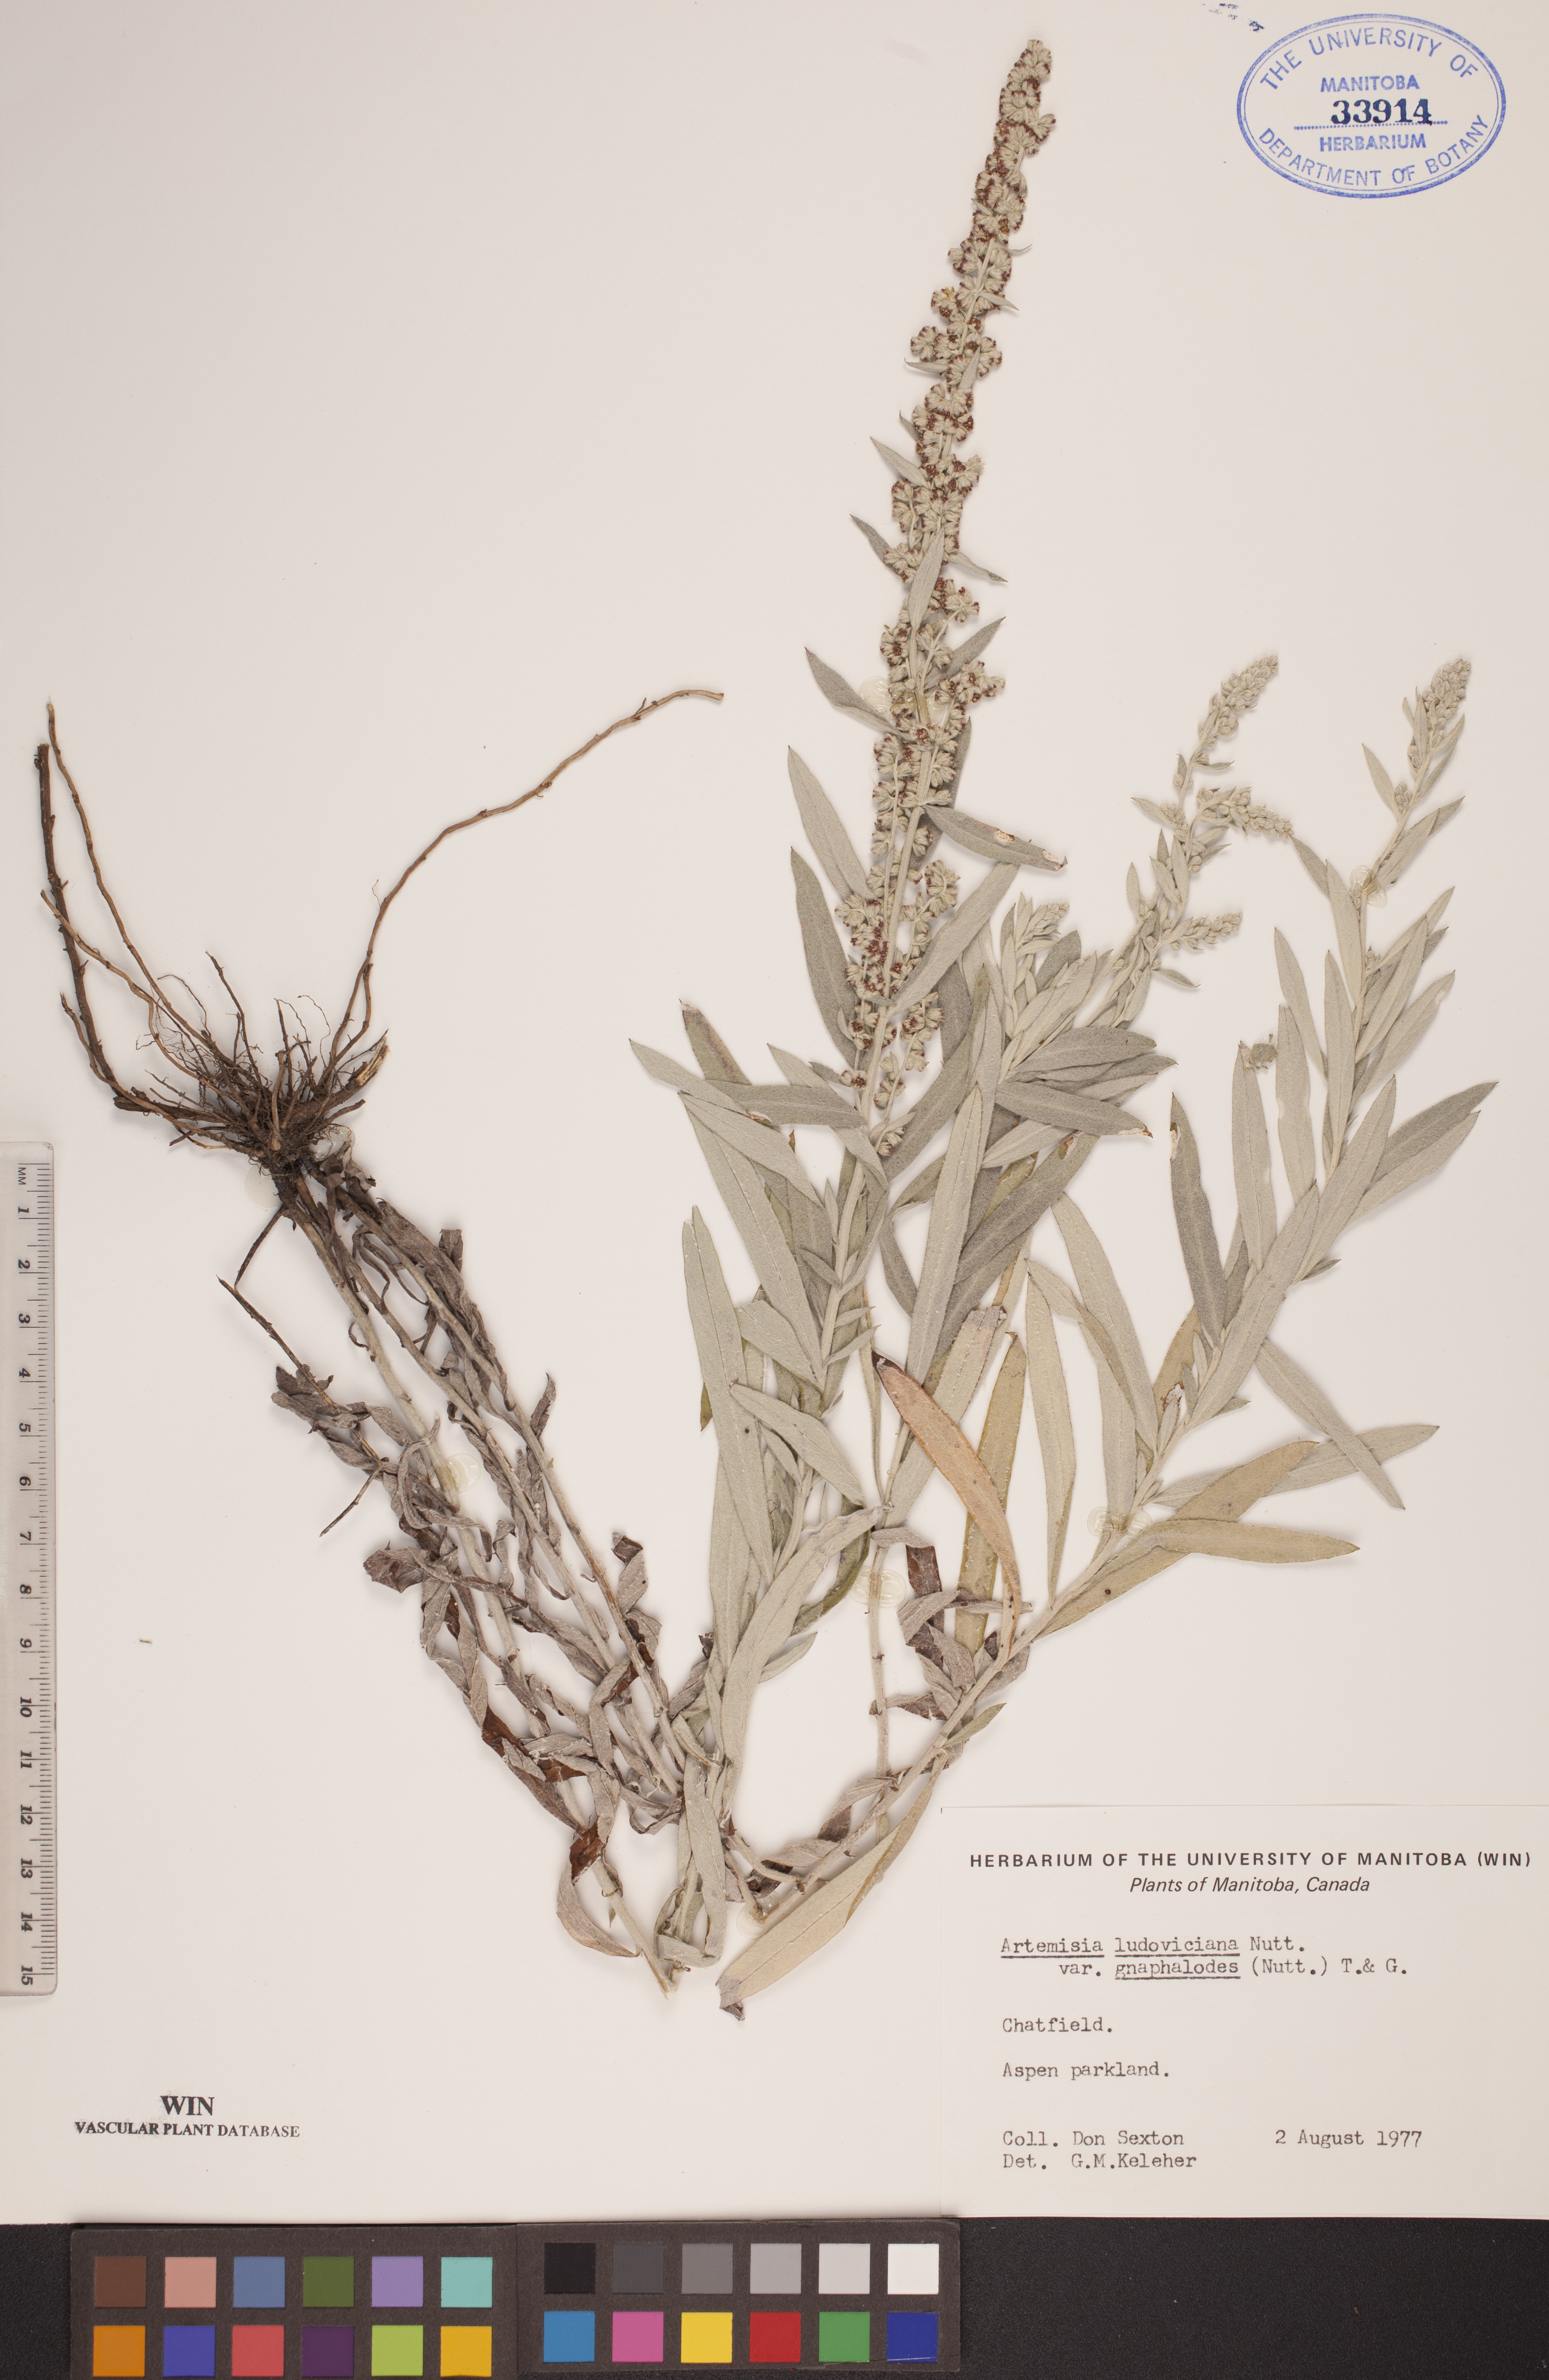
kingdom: Plantae
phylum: Tracheophyta
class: Magnoliopsida
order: Asterales
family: Asteraceae
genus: Artemisia
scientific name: Artemisia ludoviciana
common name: Western mugwort
